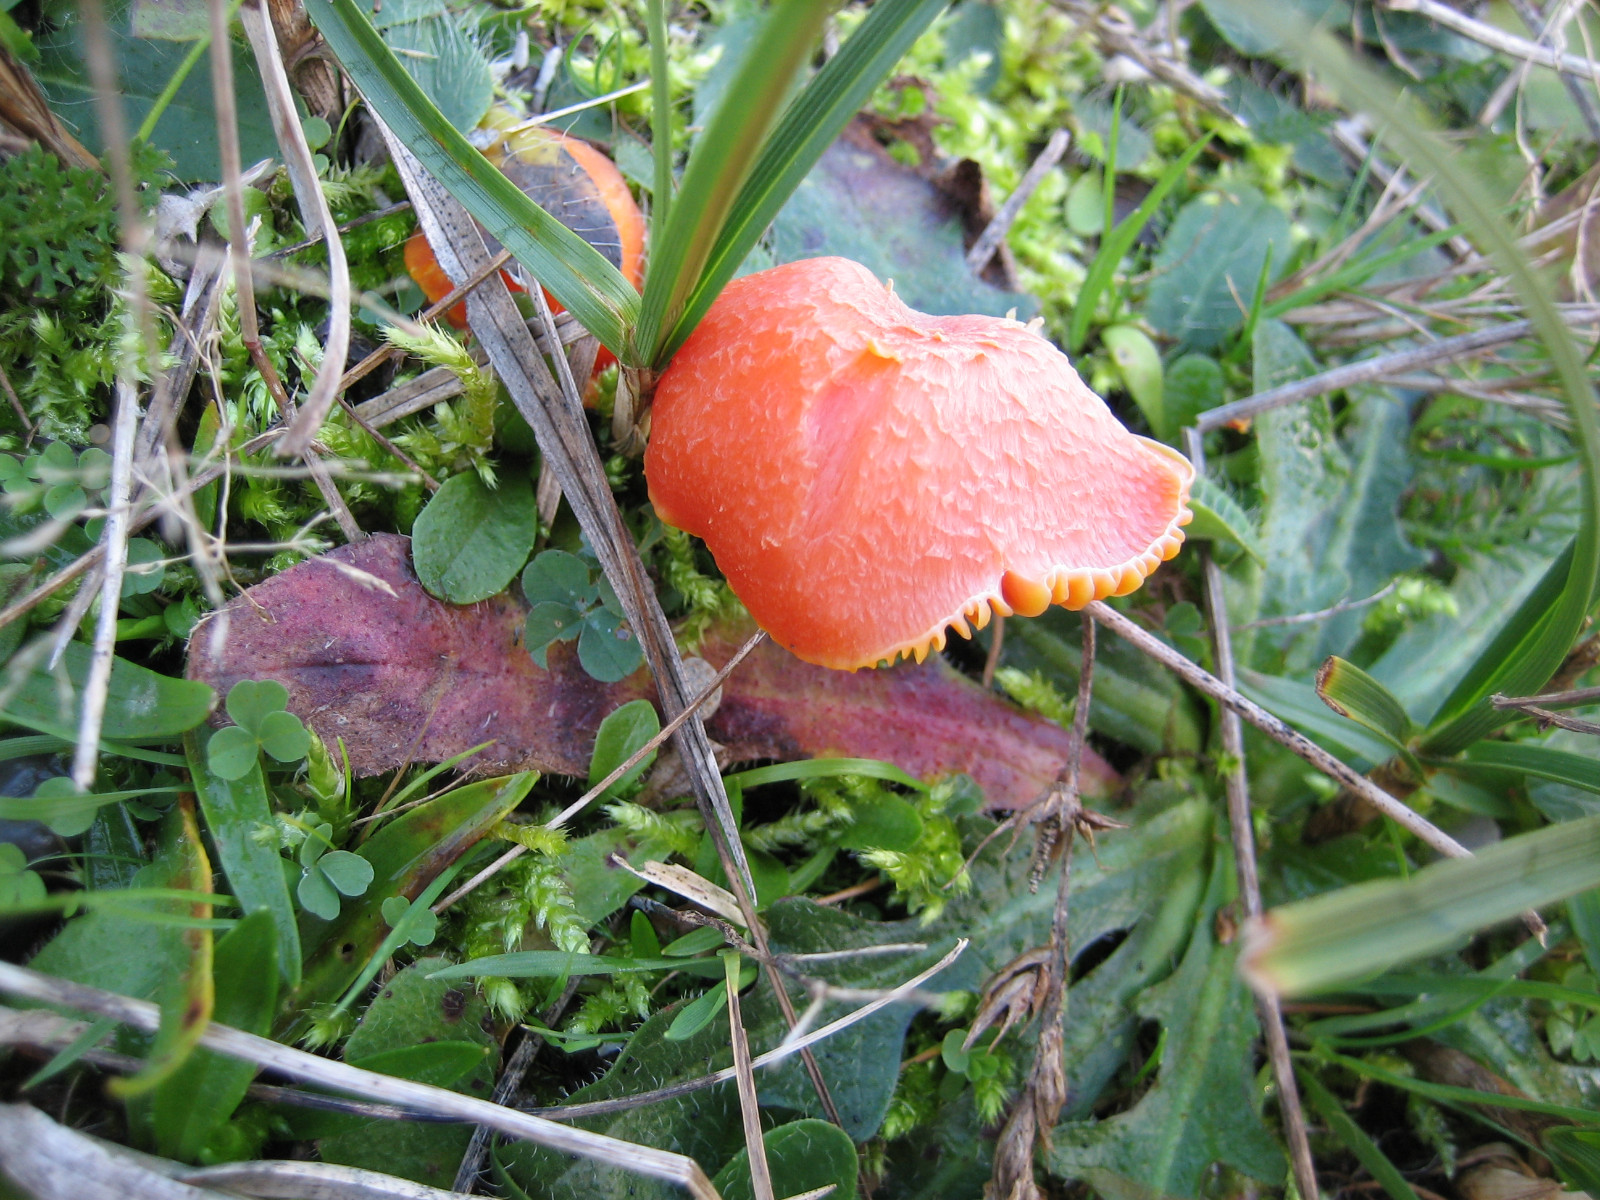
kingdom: Fungi
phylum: Basidiomycota
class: Agaricomycetes
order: Agaricales
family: Hygrophoraceae
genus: Hygrocybe
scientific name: Hygrocybe miniata
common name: mønje-vokshat
